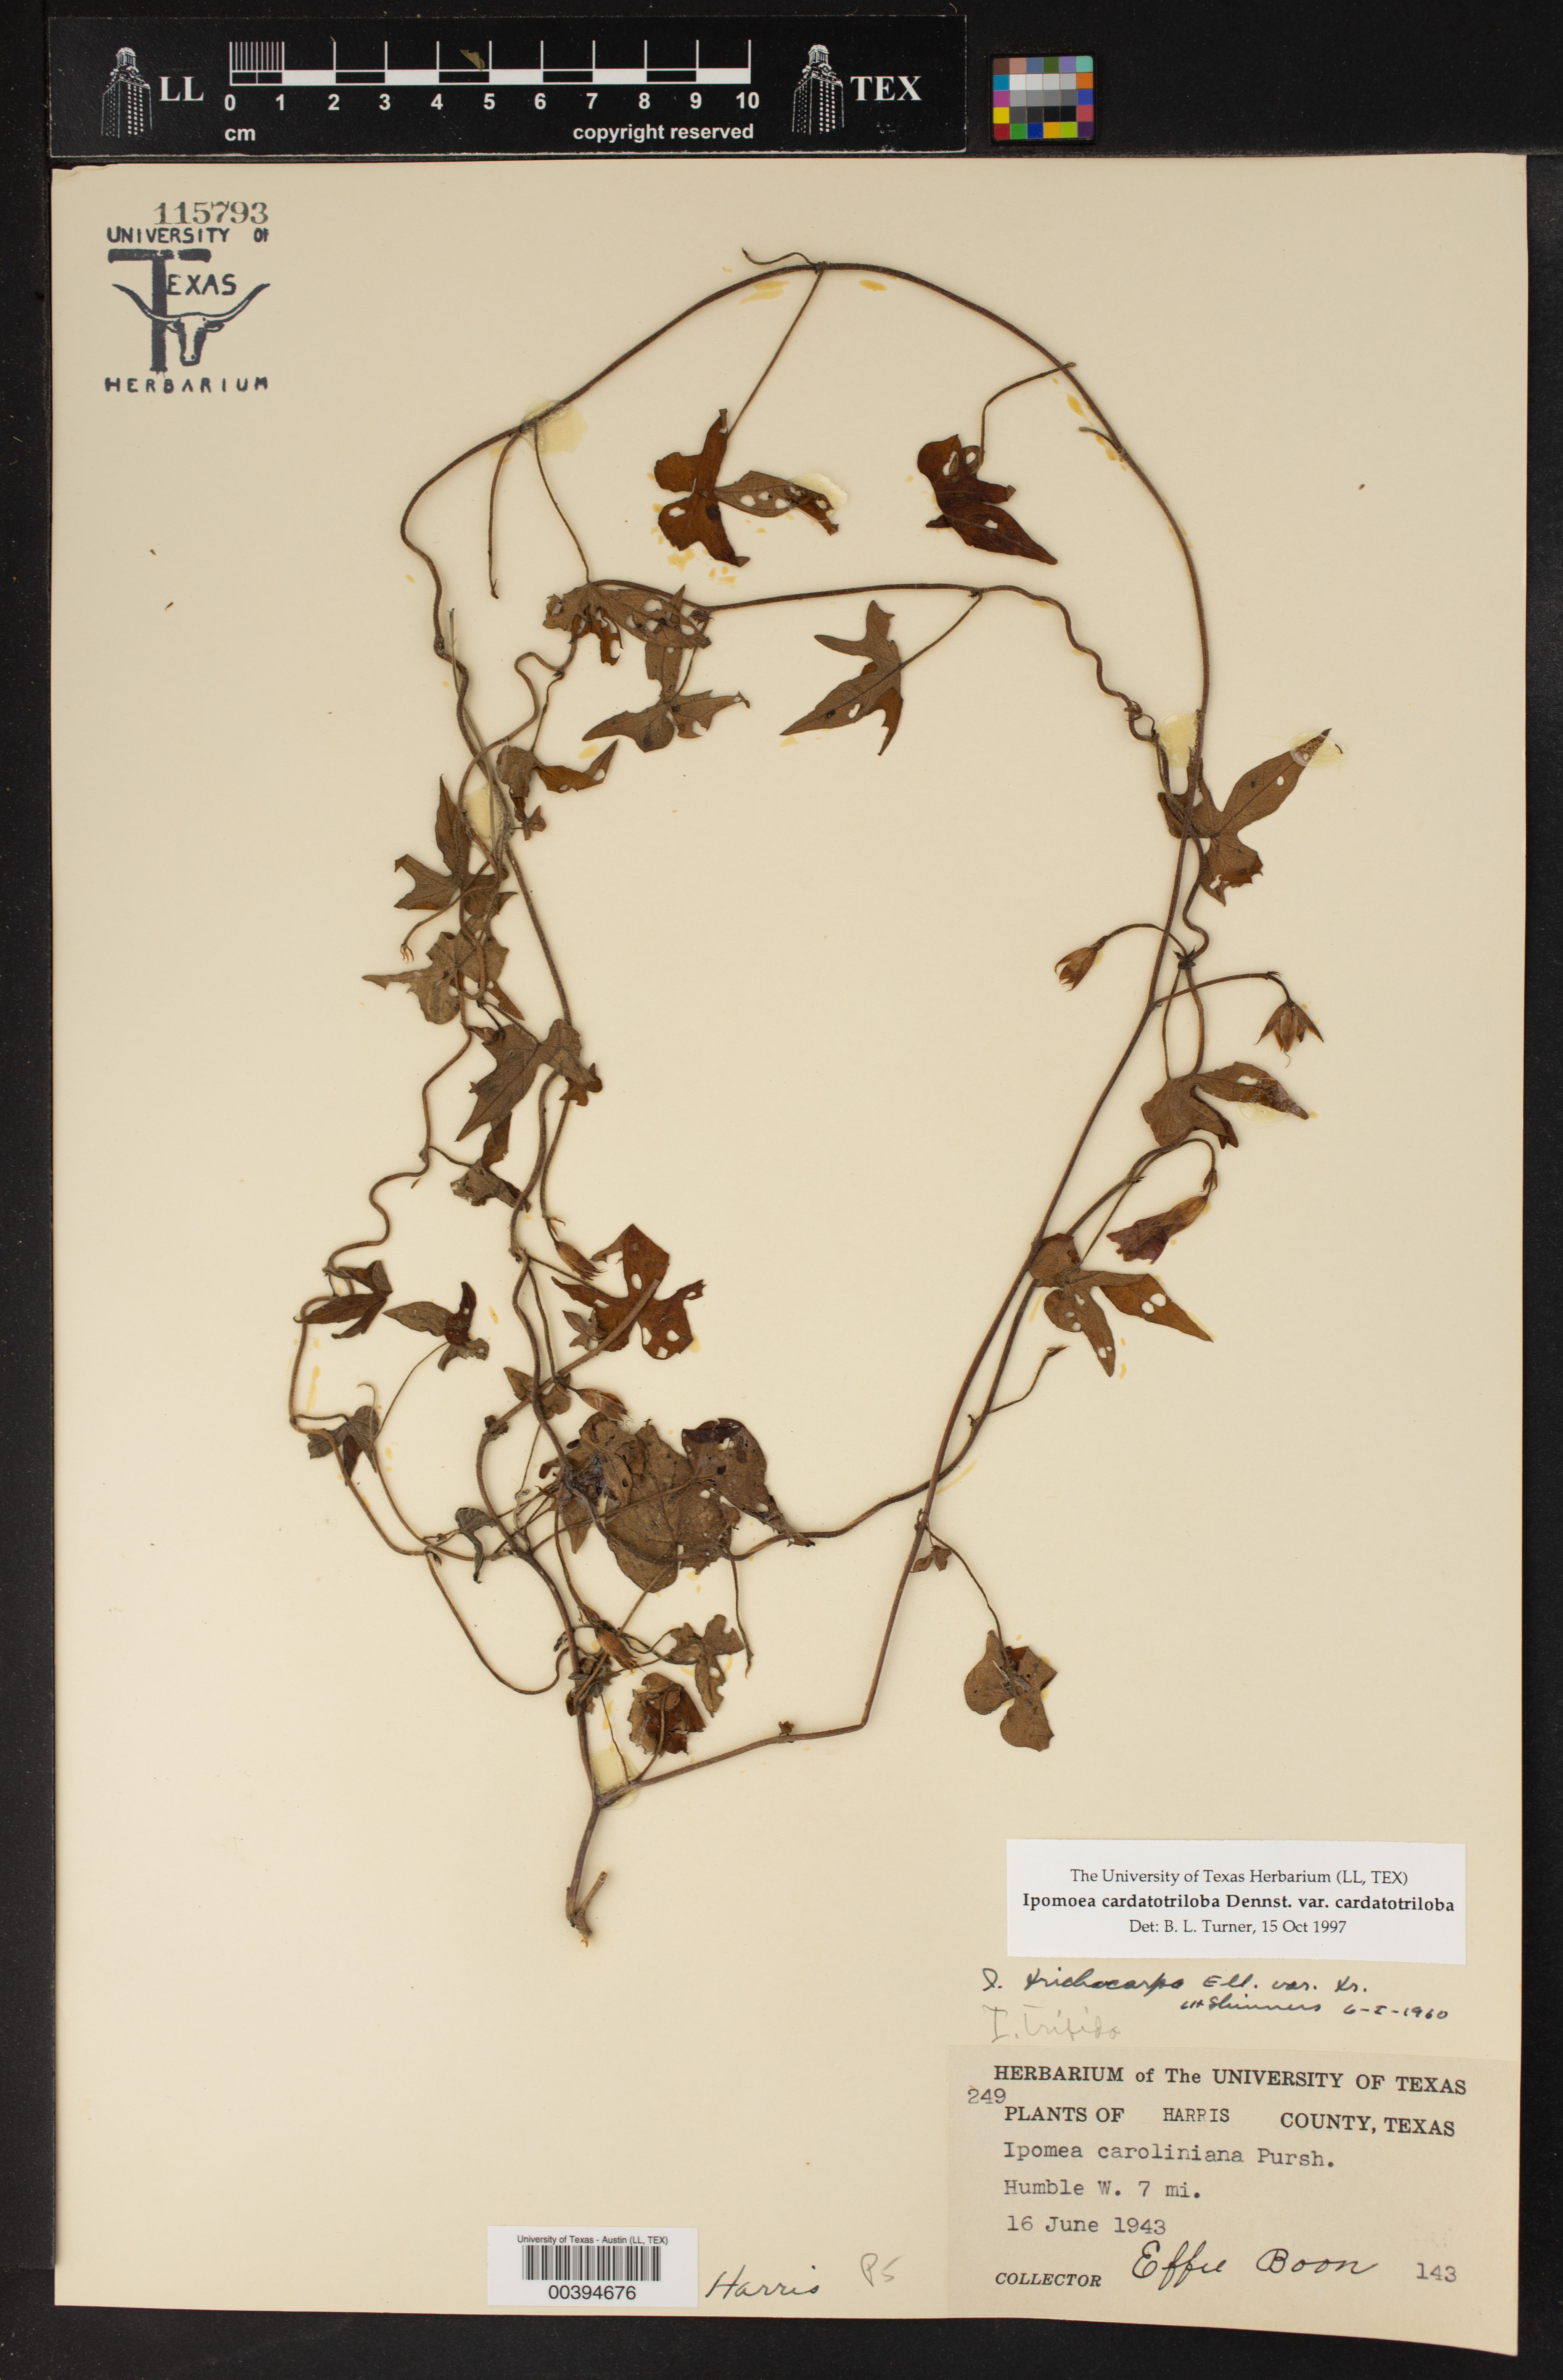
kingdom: Plantae
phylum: Tracheophyta
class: Magnoliopsida
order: Solanales
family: Convolvulaceae
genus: Ipomoea
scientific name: Ipomoea cordatotriloba
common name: Cotton morning glory
